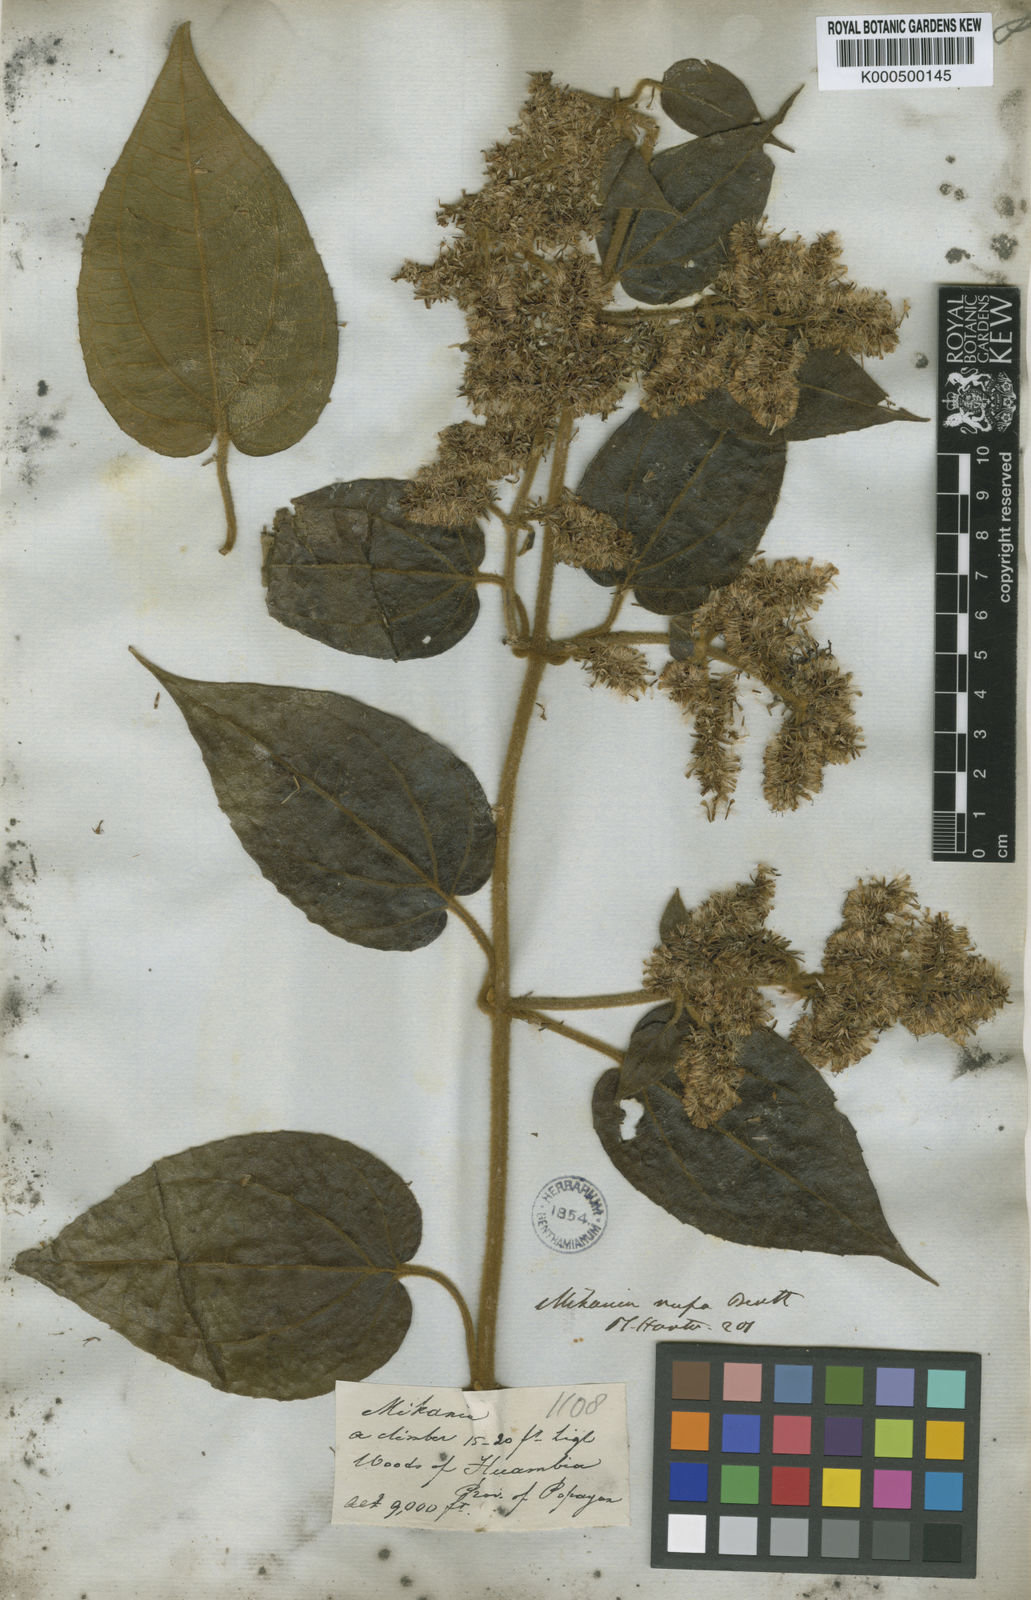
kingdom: Plantae
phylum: Tracheophyta
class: Magnoliopsida
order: Asterales
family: Asteraceae
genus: Mikania
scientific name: Mikania rufa
